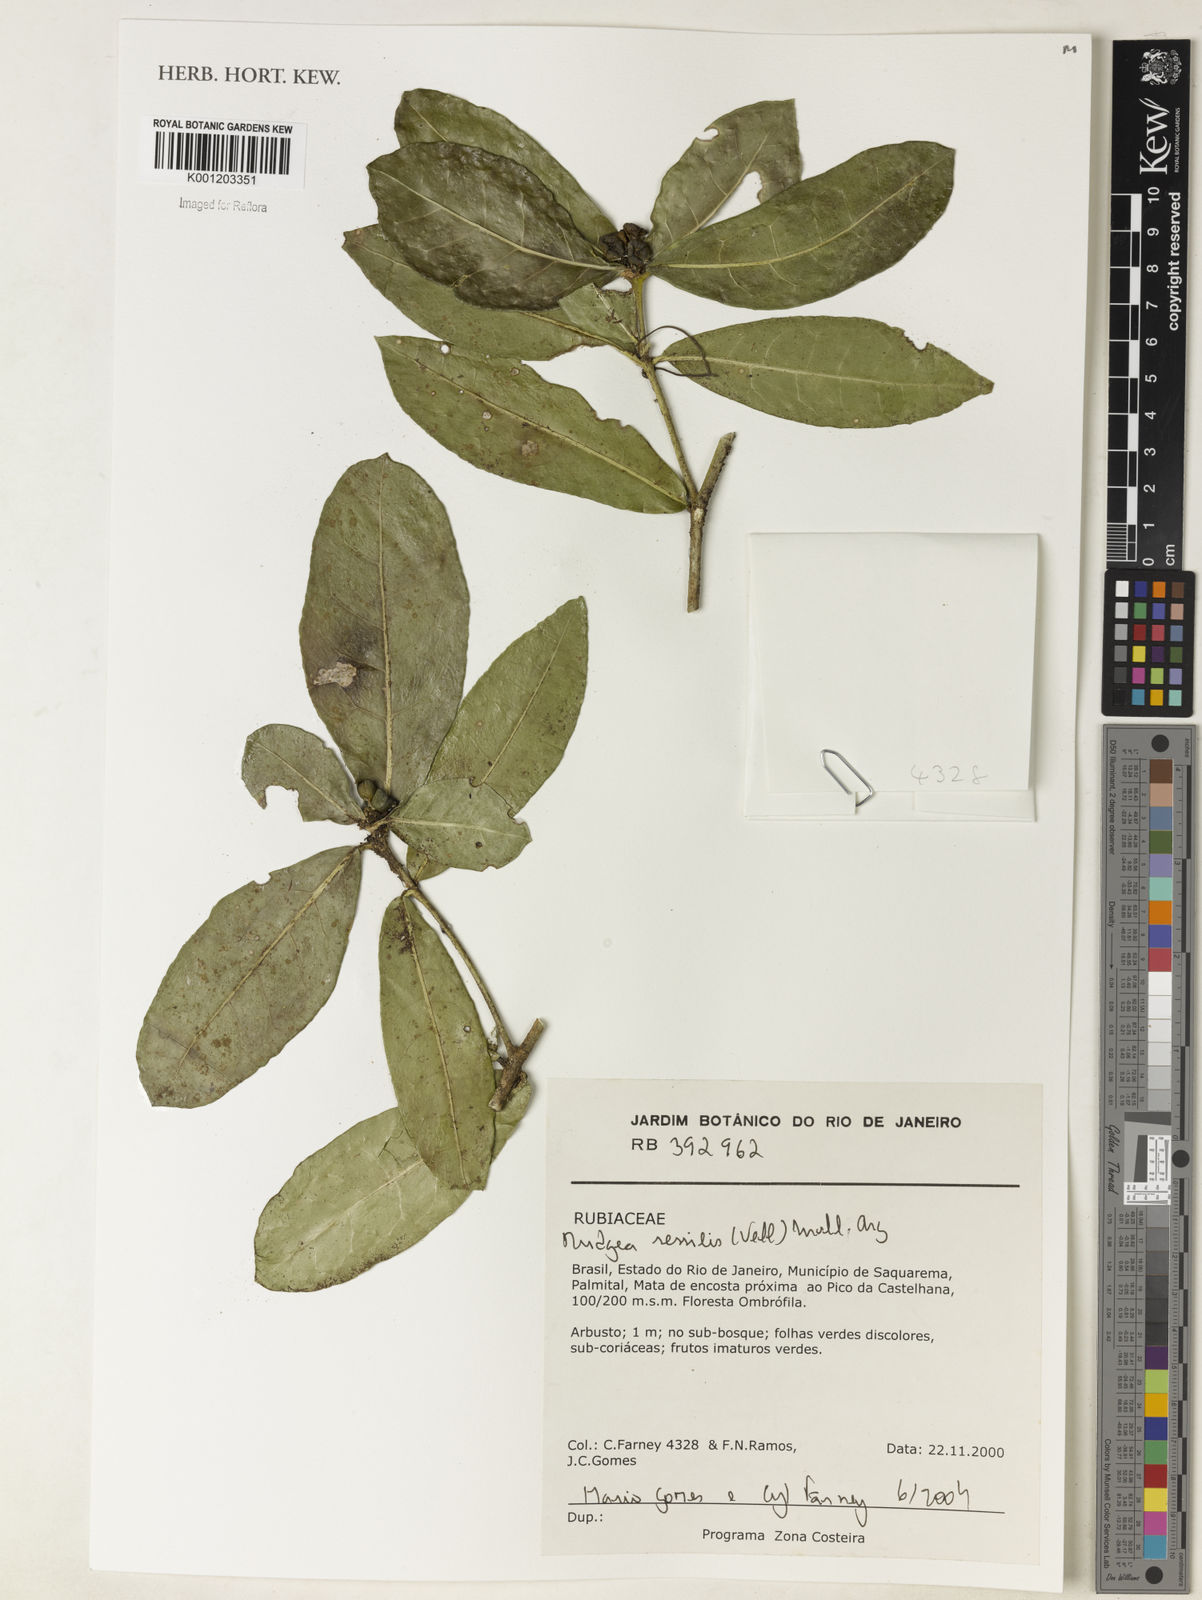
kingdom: Plantae
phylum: Tracheophyta
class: Magnoliopsida
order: Gentianales
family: Rubiaceae
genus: Rudgea
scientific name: Rudgea
